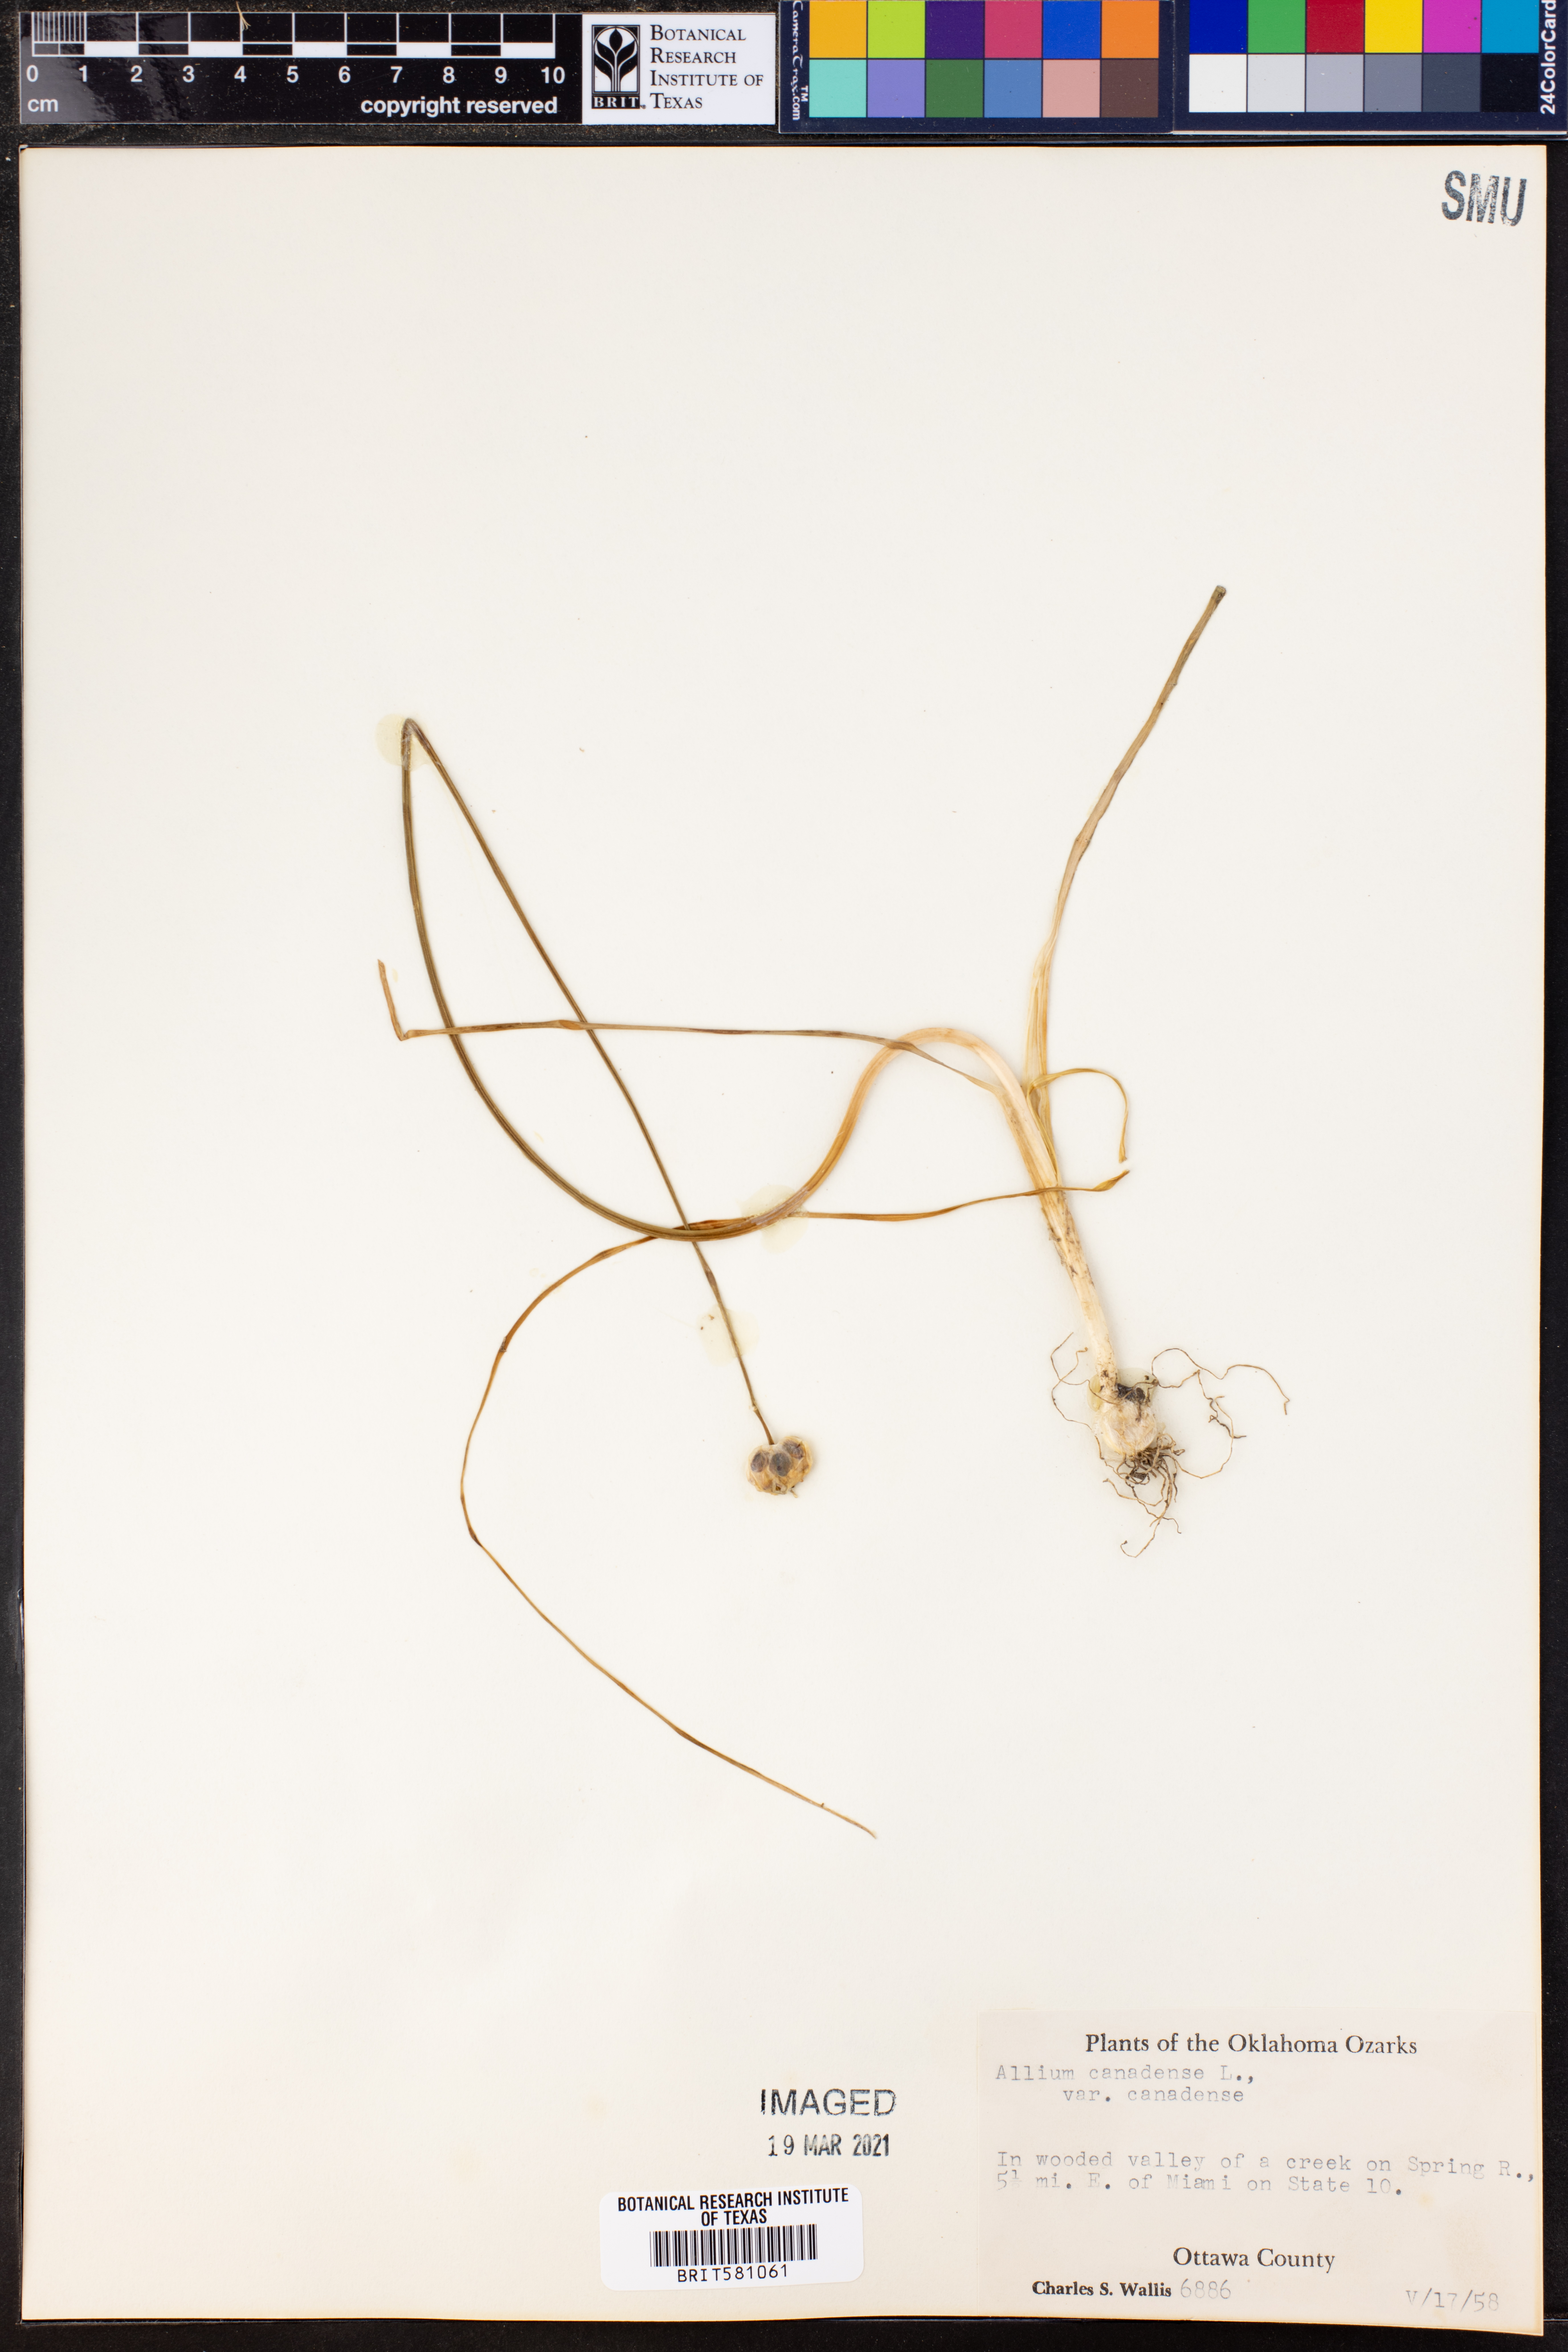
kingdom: Plantae
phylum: Tracheophyta
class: Liliopsida
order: Asparagales
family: Amaryllidaceae
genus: Allium
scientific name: Allium canadense
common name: Meadow garlic
